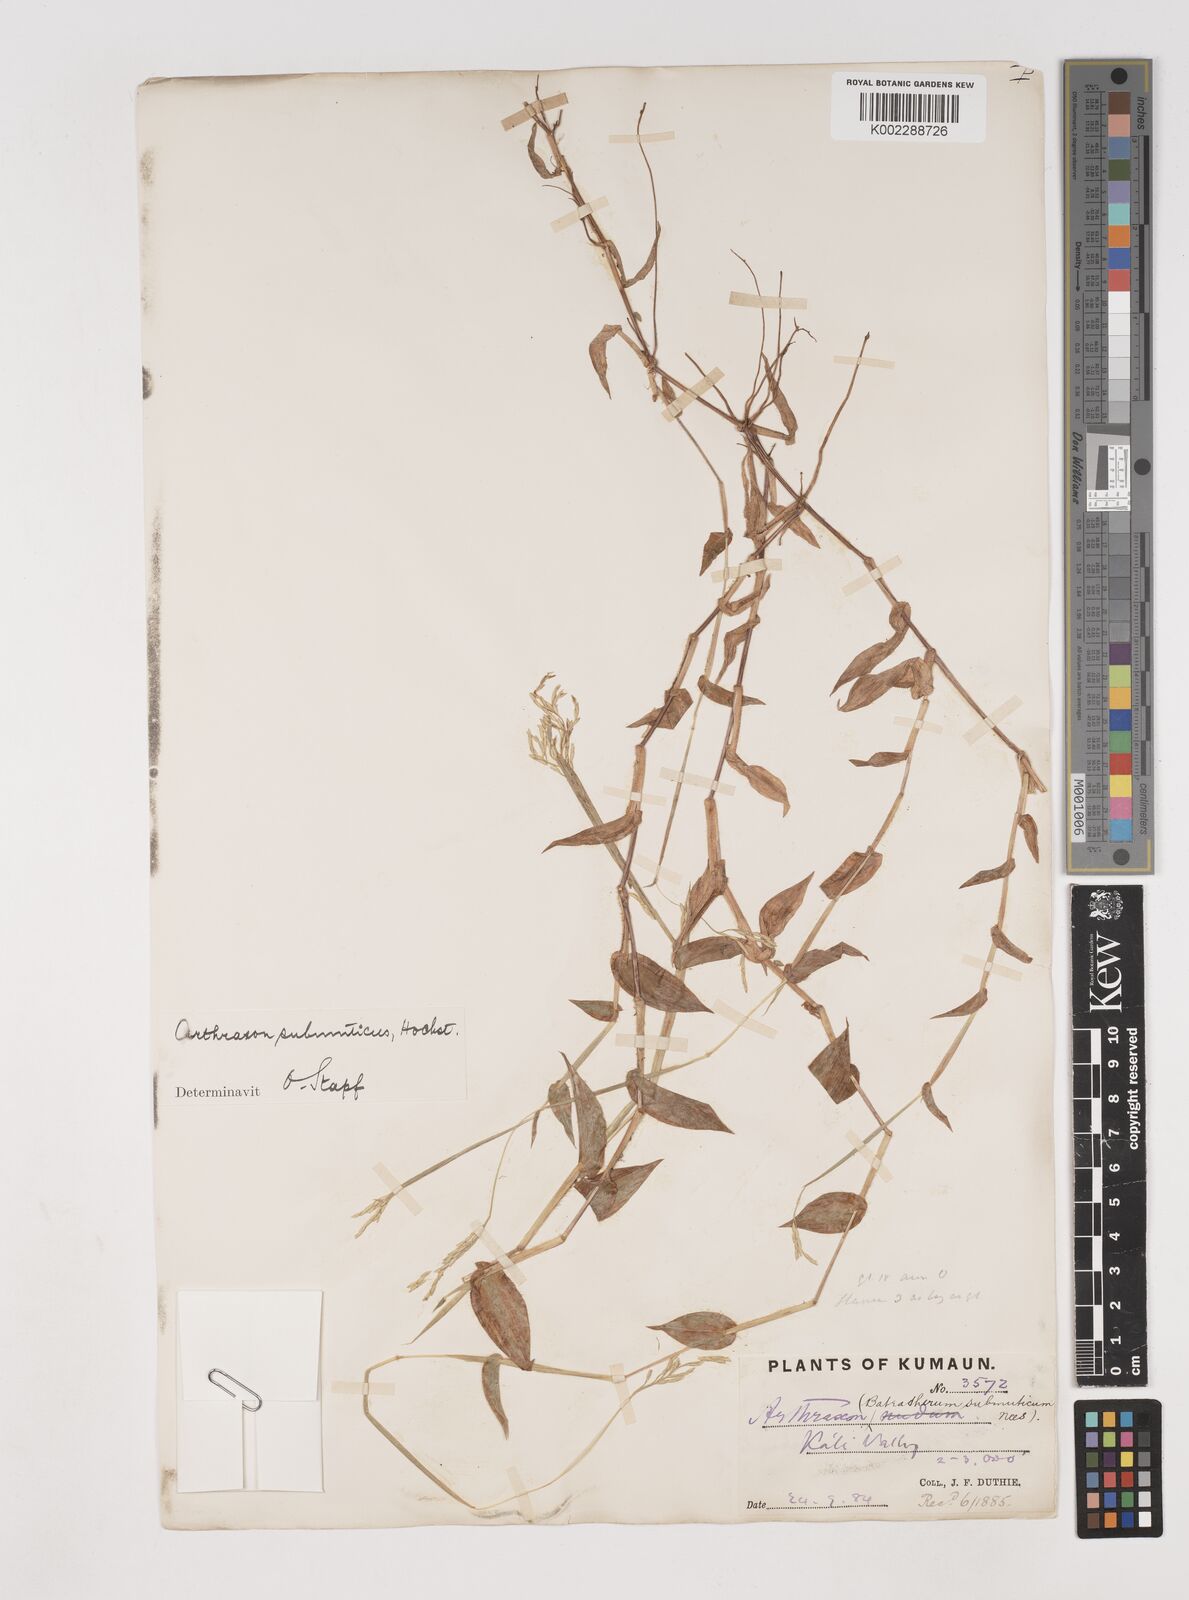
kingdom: Plantae
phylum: Tracheophyta
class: Liliopsida
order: Poales
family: Poaceae
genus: Arthraxon
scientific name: Arthraxon submuticus
